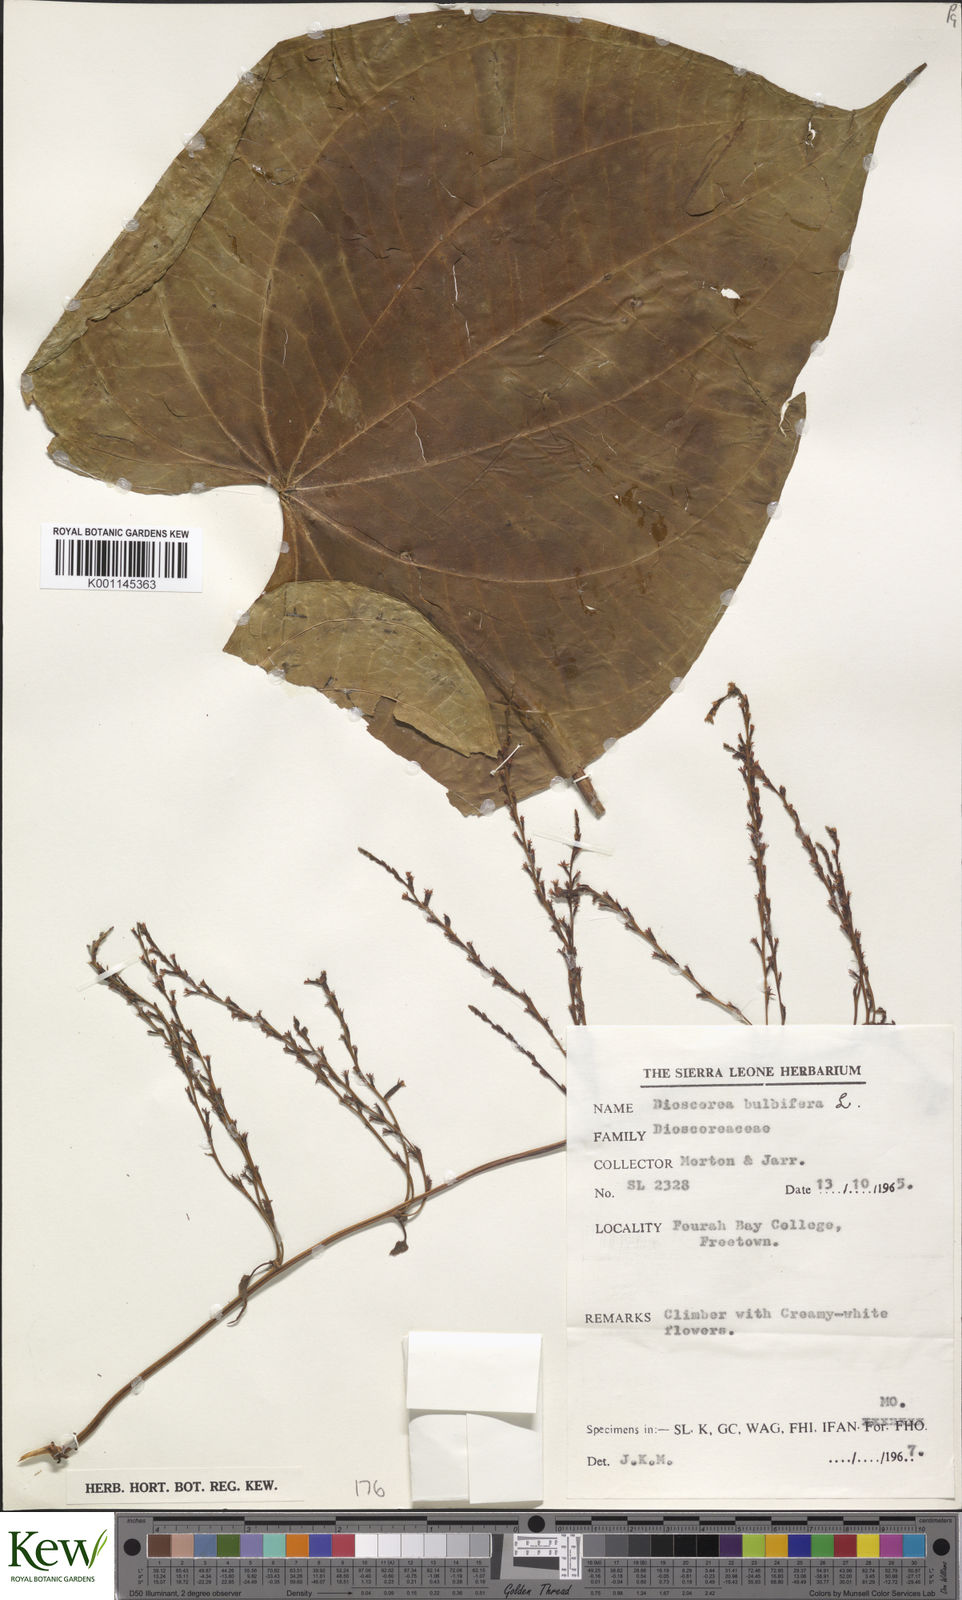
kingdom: Plantae
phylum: Tracheophyta
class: Liliopsida
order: Dioscoreales
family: Dioscoreaceae
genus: Dioscorea
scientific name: Dioscorea bulbifera
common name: Air yam
